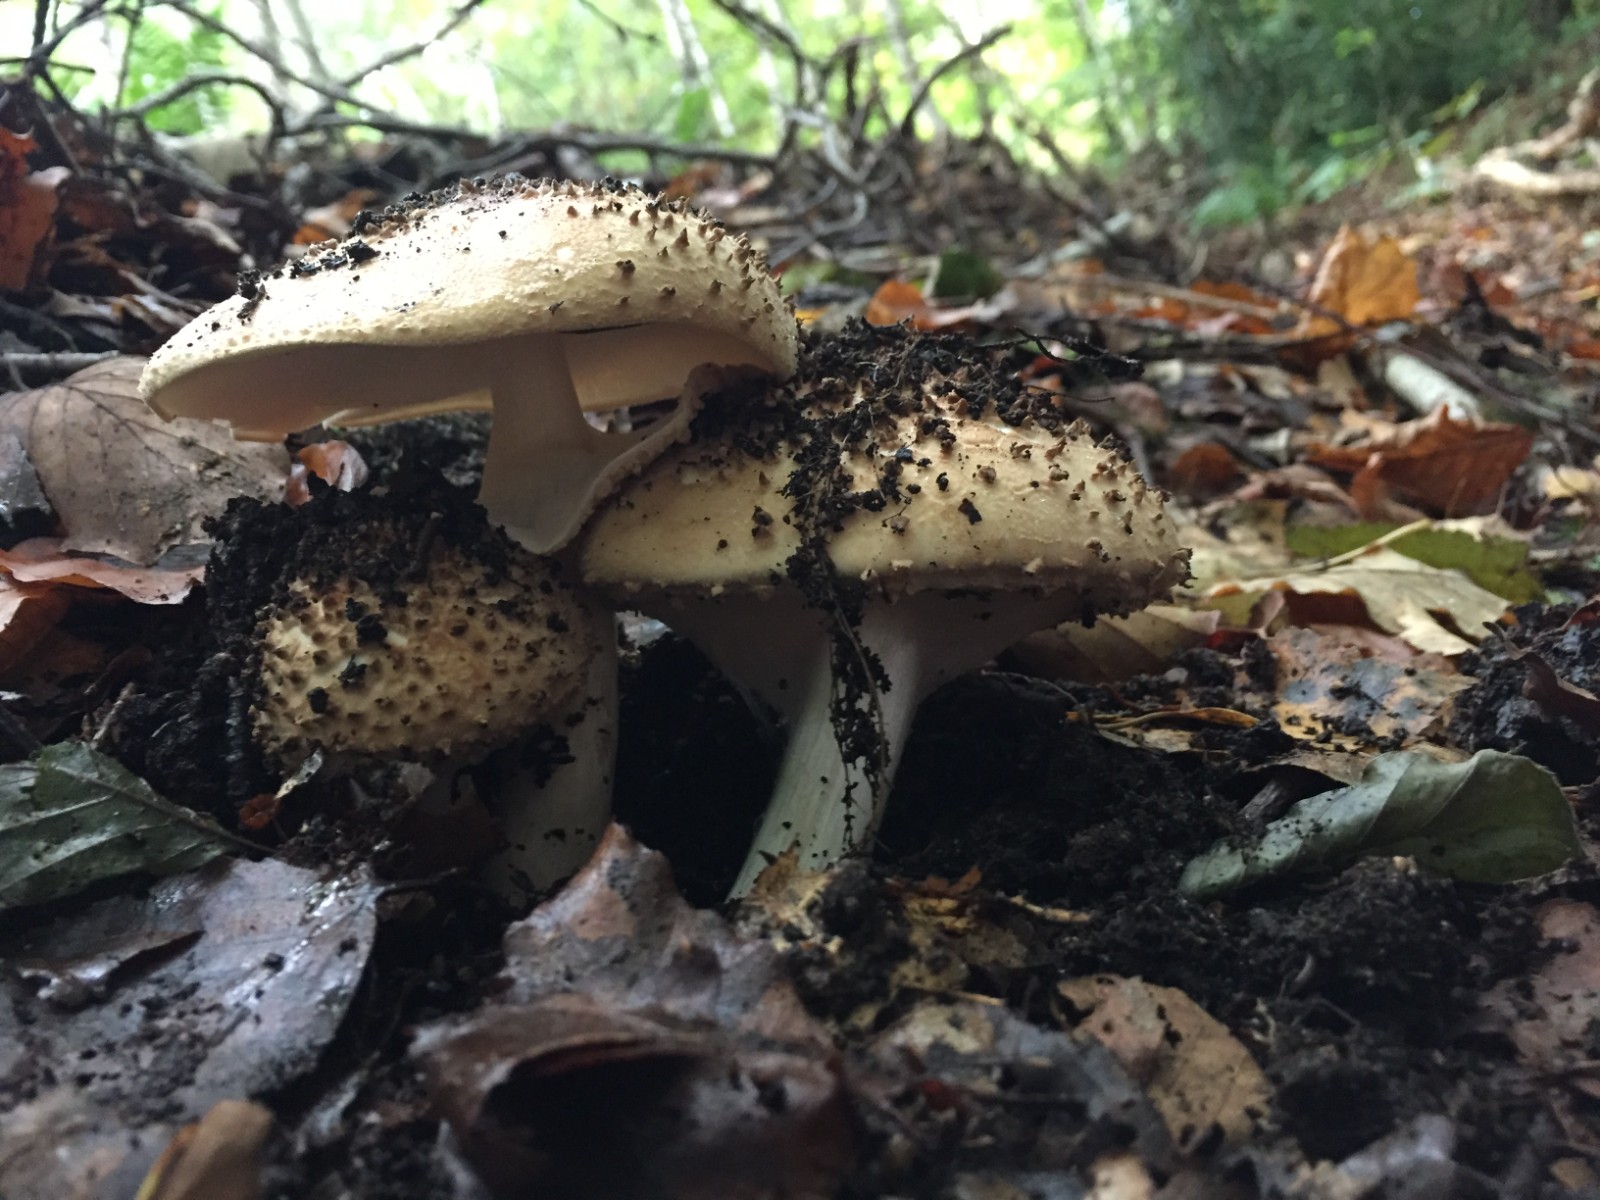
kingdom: Fungi
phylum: Basidiomycota
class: Agaricomycetes
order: Agaricales
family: Agaricaceae
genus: Echinoderma
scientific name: Echinoderma asperum
